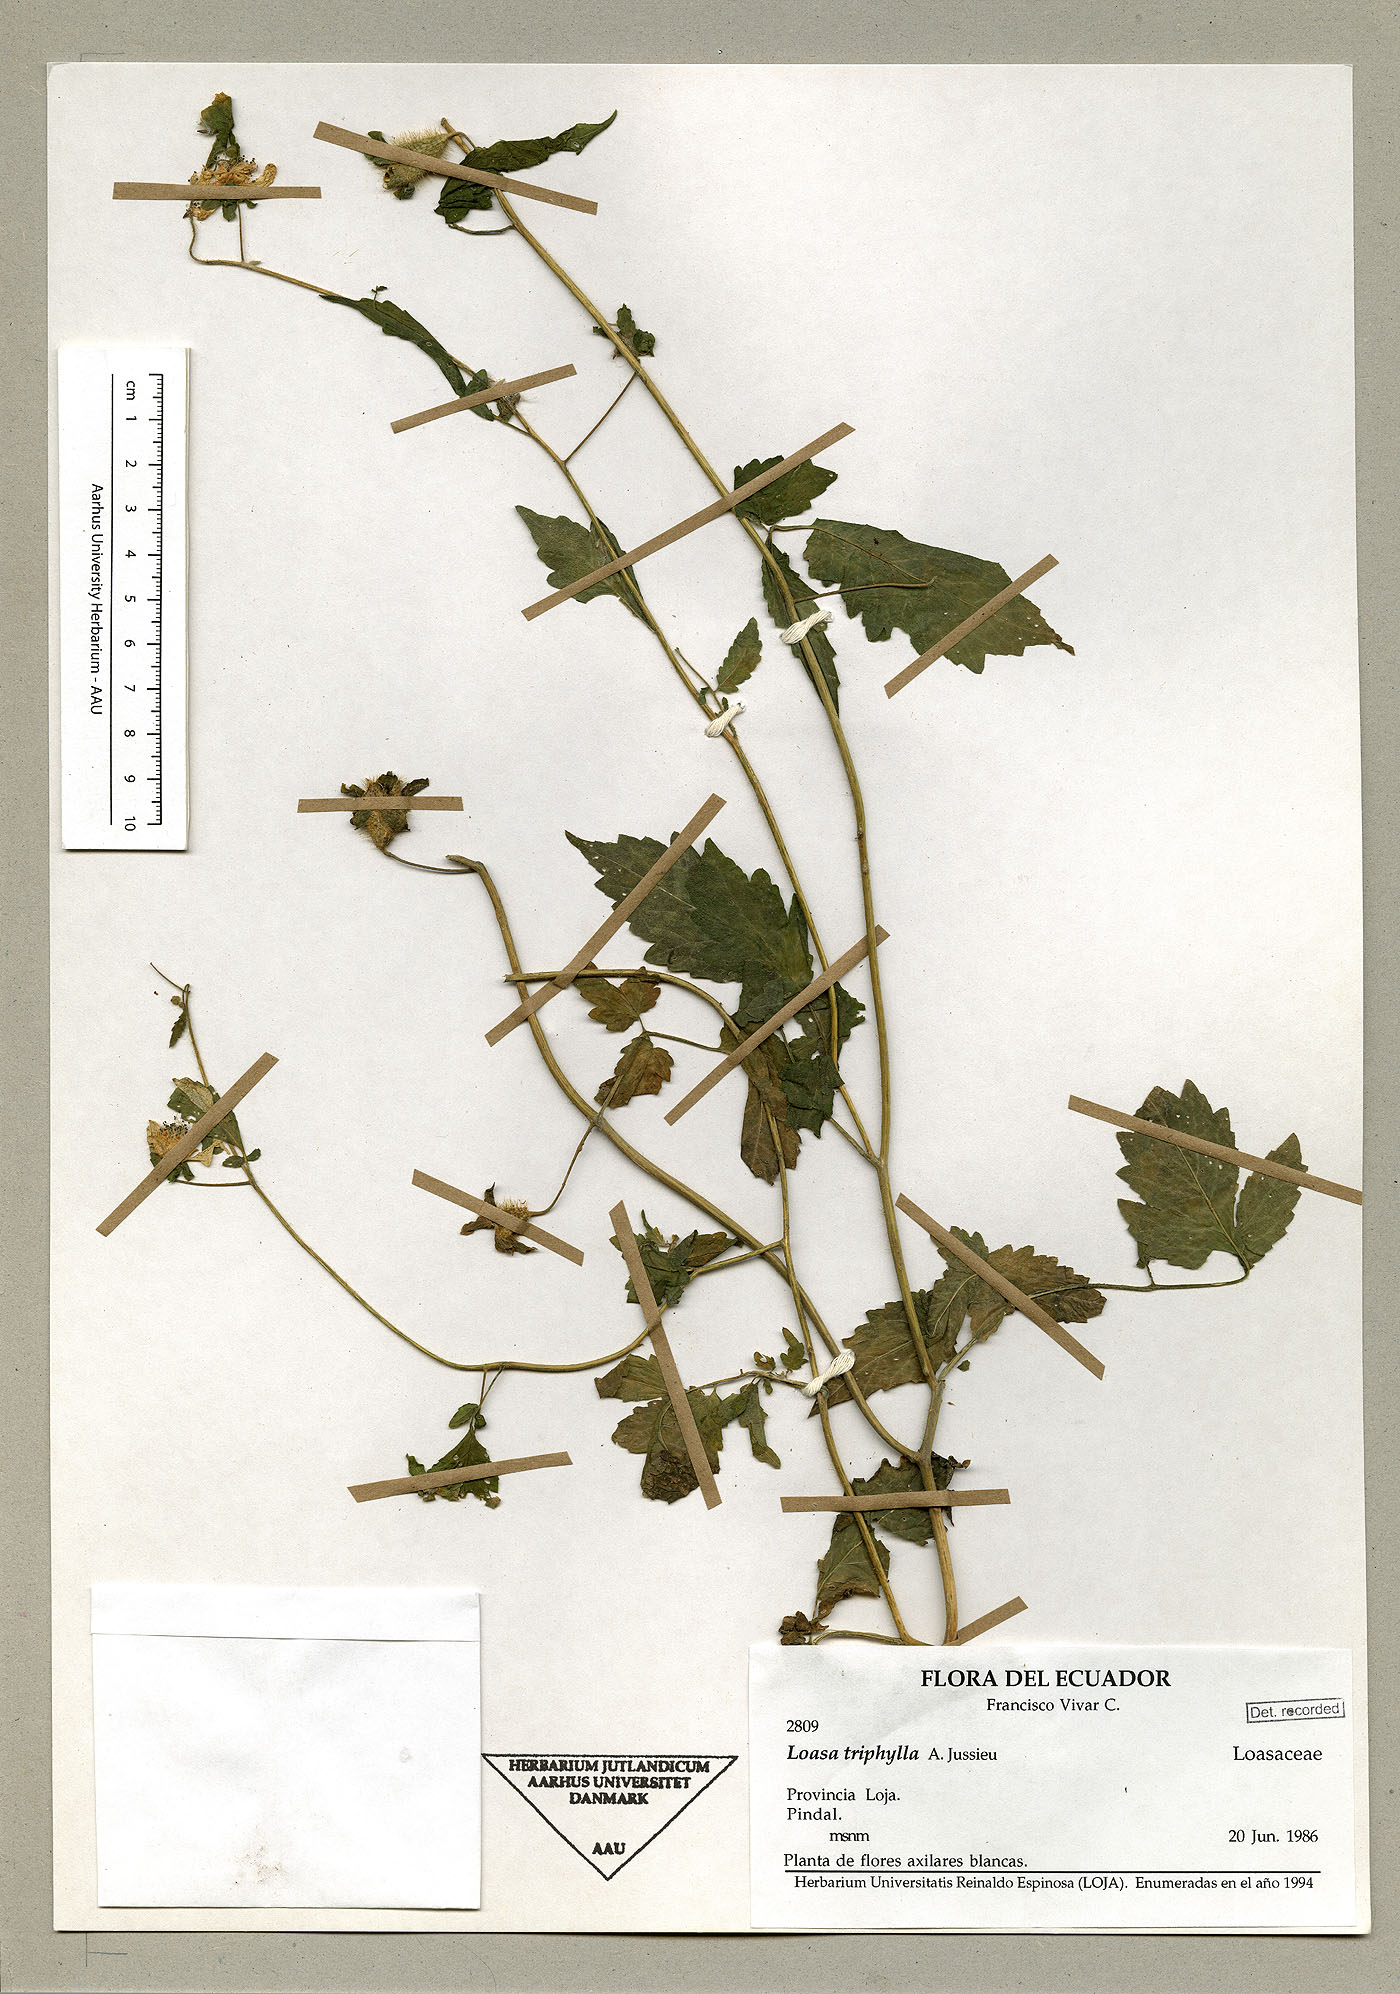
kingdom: Plantae
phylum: Tracheophyta
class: Magnoliopsida
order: Cornales
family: Loasaceae
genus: Nasa
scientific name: Nasa bicornuta
